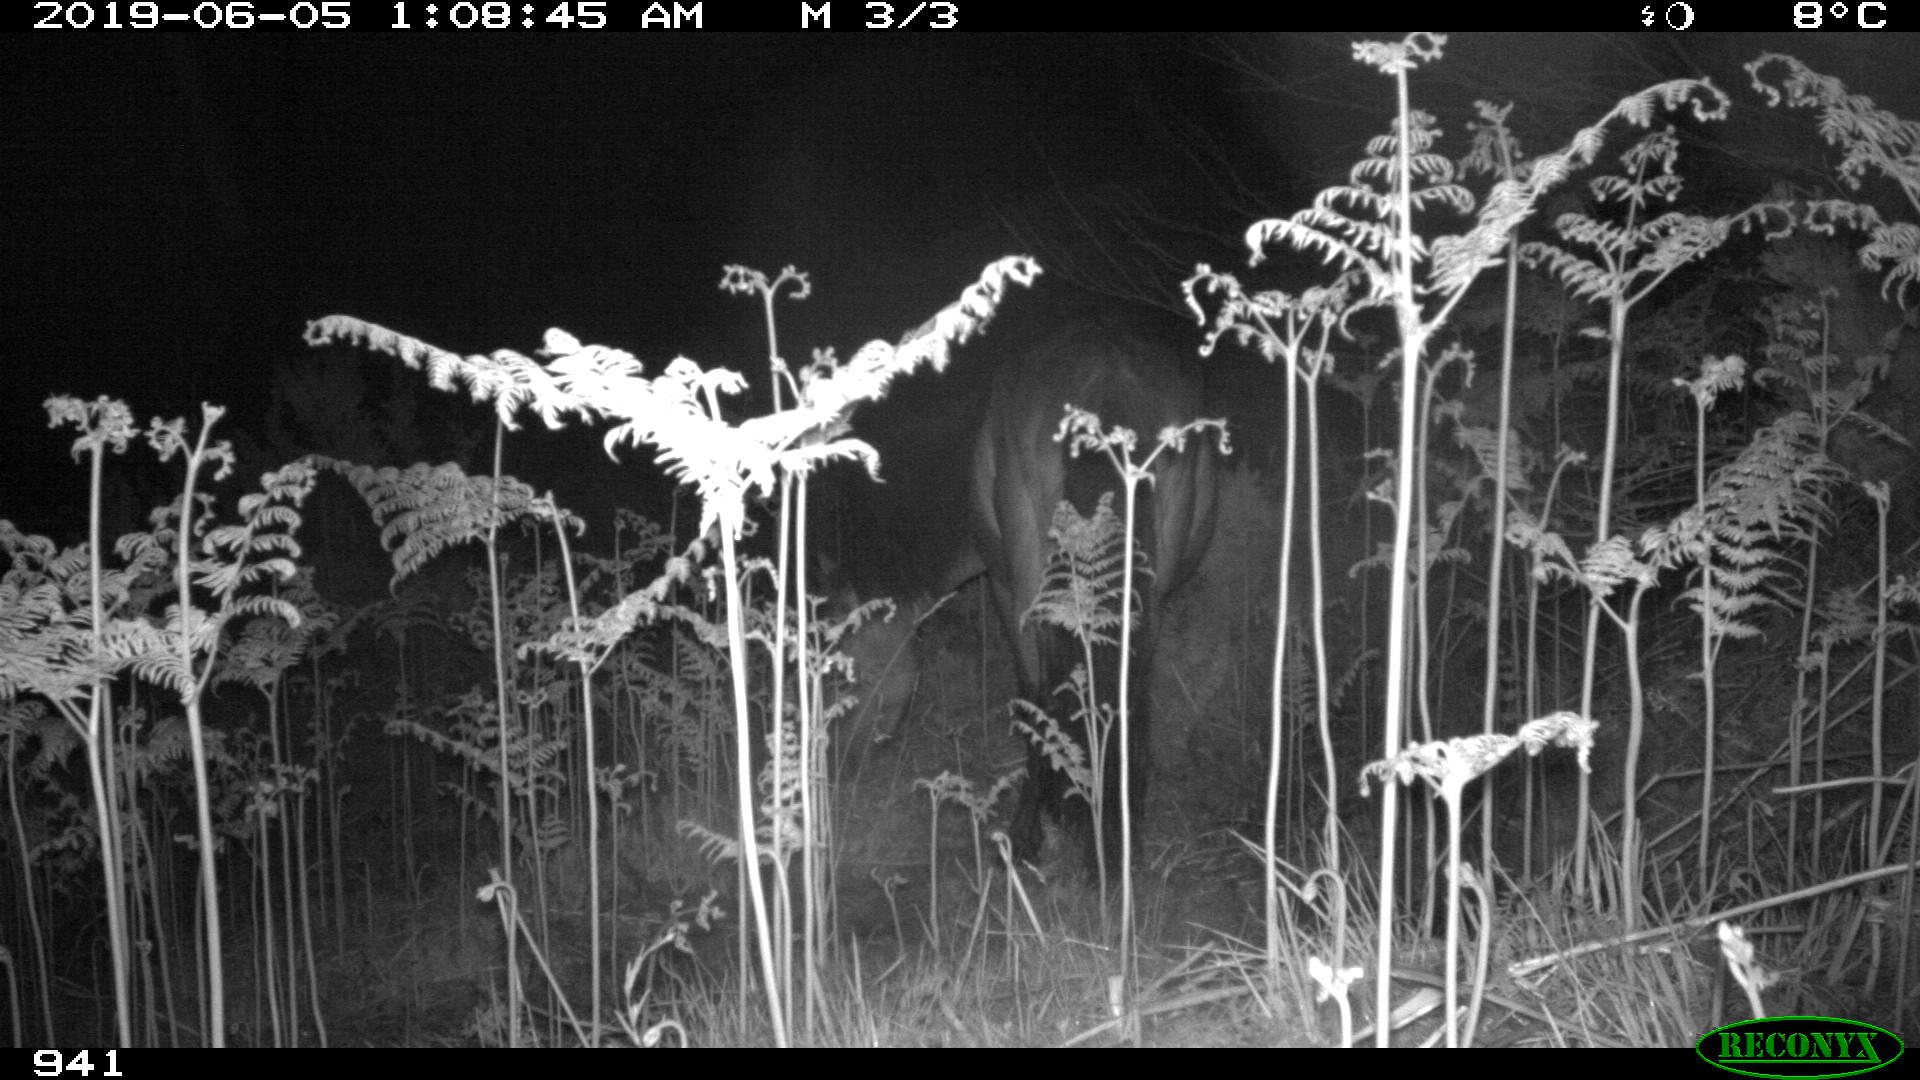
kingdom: Animalia
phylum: Chordata
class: Mammalia
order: Perissodactyla
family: Equidae
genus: Equus
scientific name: Equus caballus
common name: Horse
